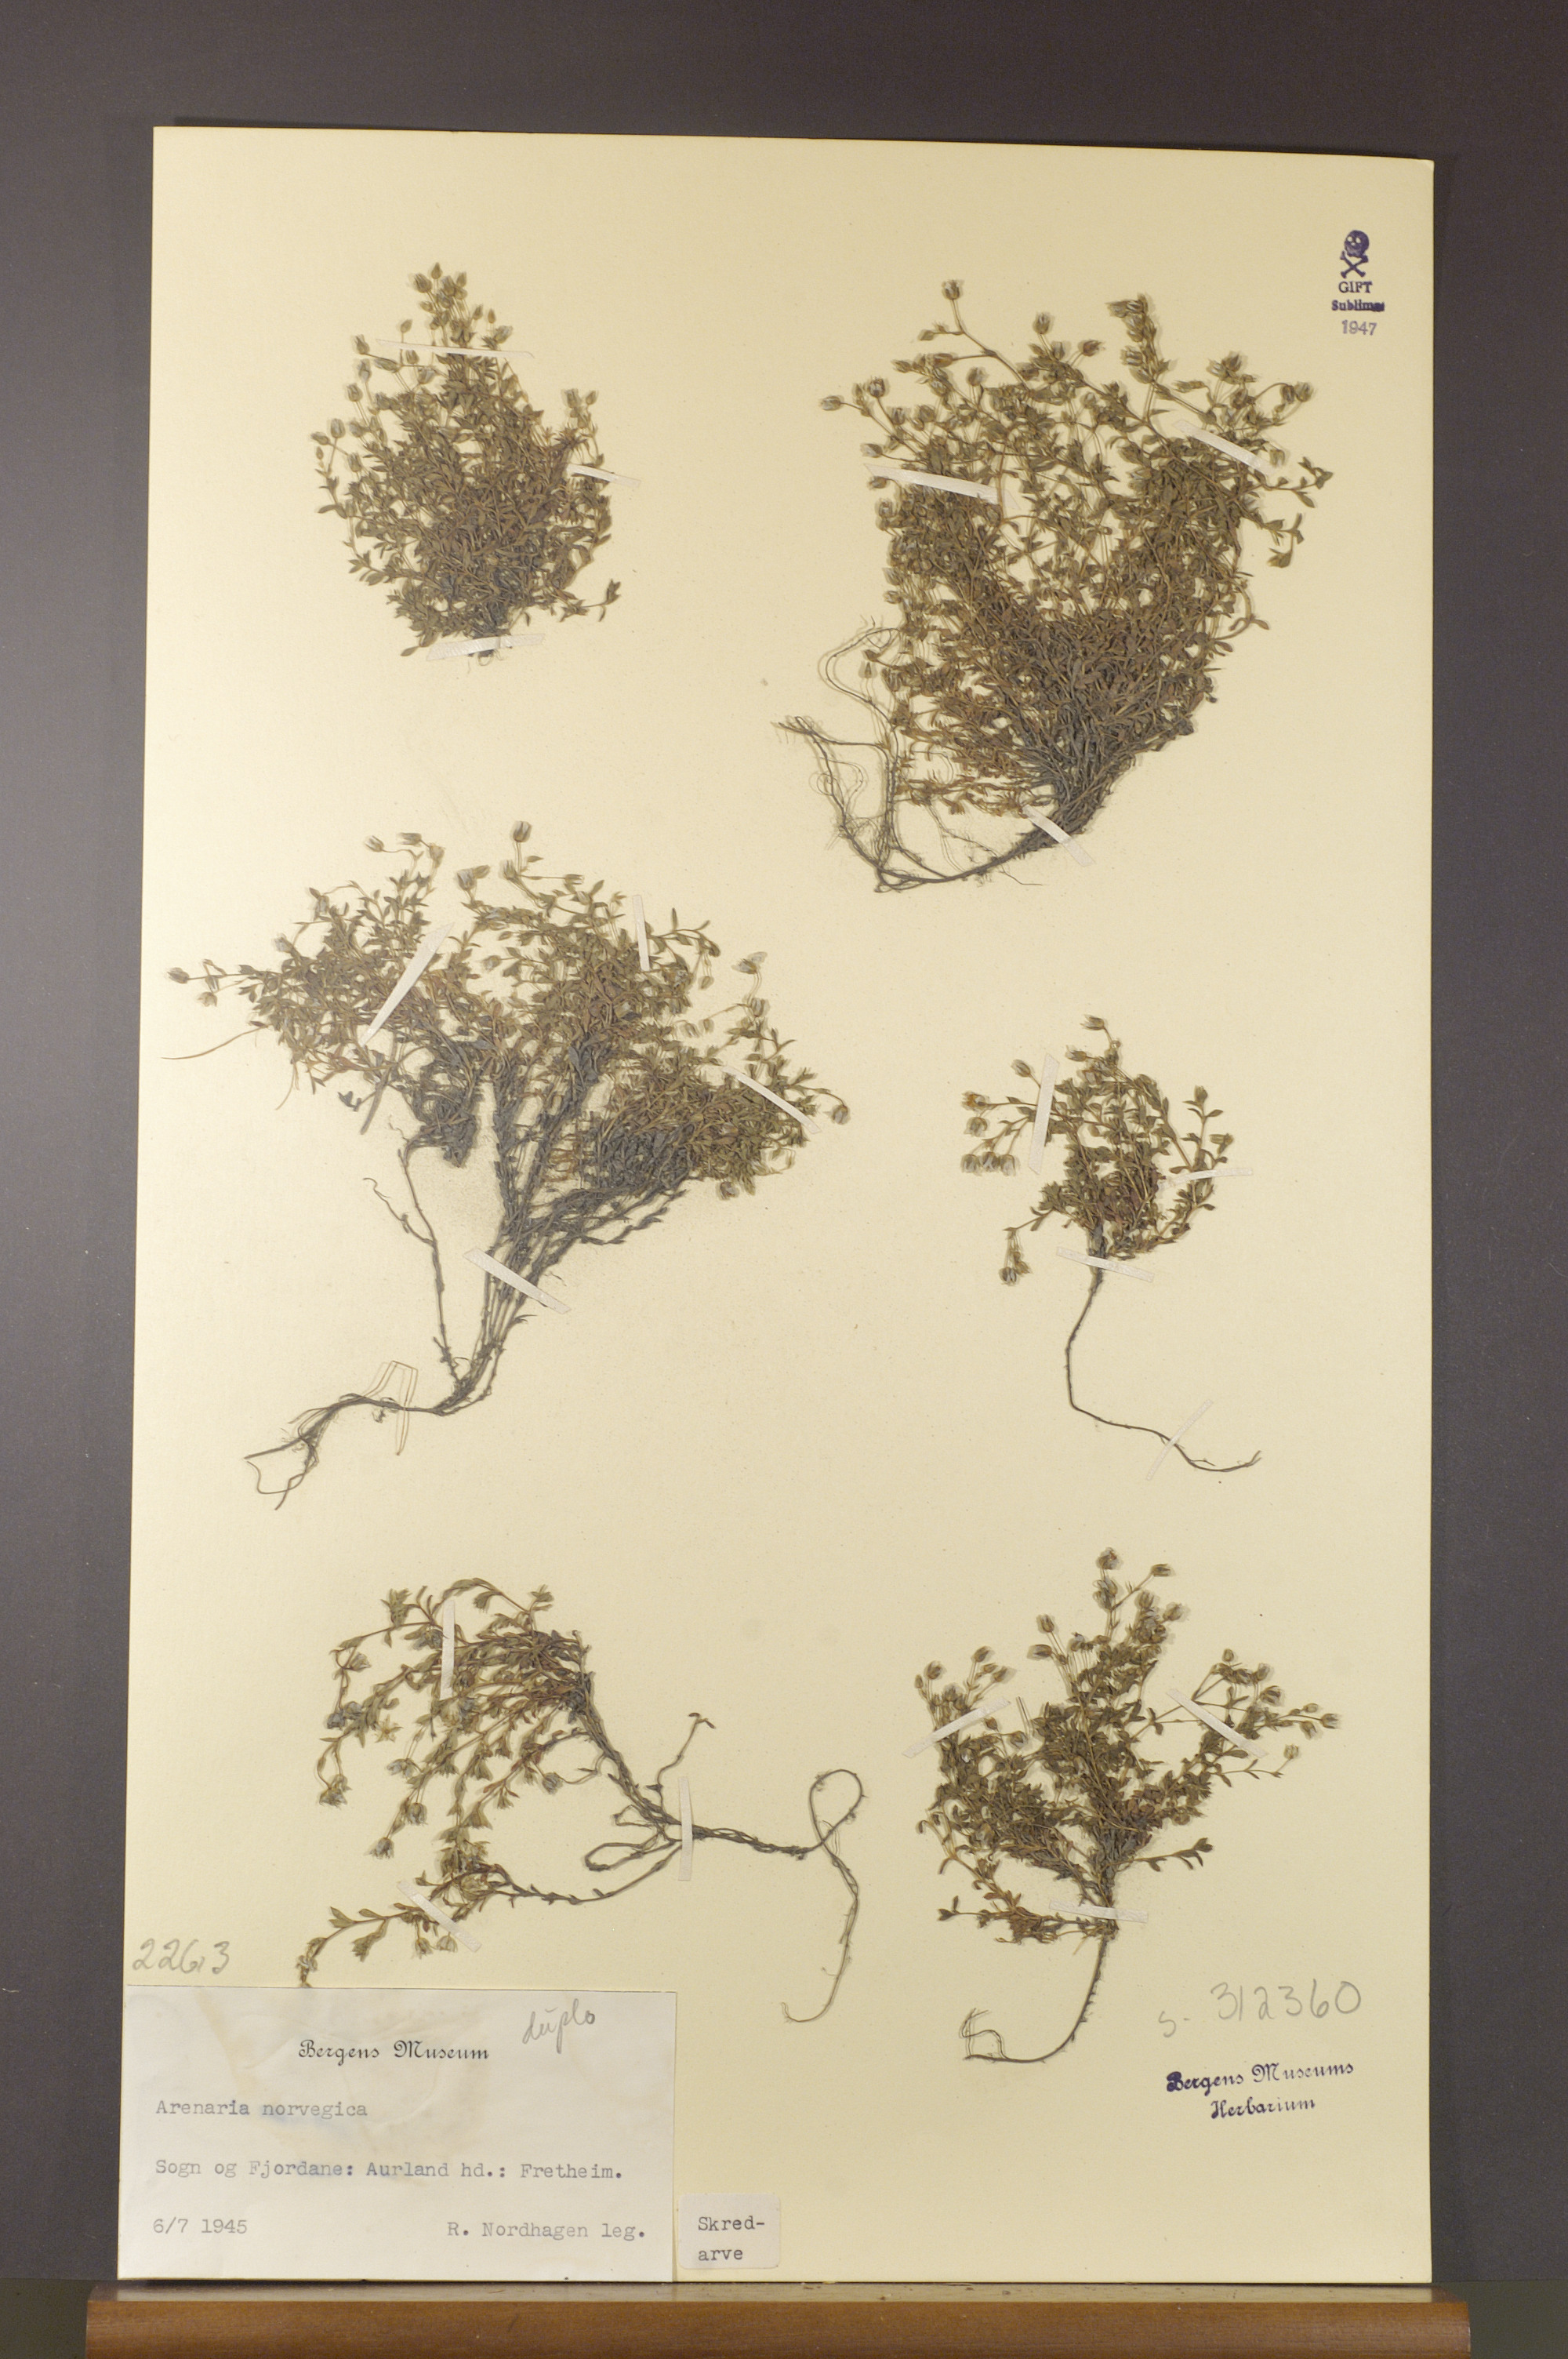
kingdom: Plantae
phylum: Tracheophyta
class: Magnoliopsida
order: Caryophyllales
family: Caryophyllaceae
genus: Arenaria
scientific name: Arenaria norvegica
